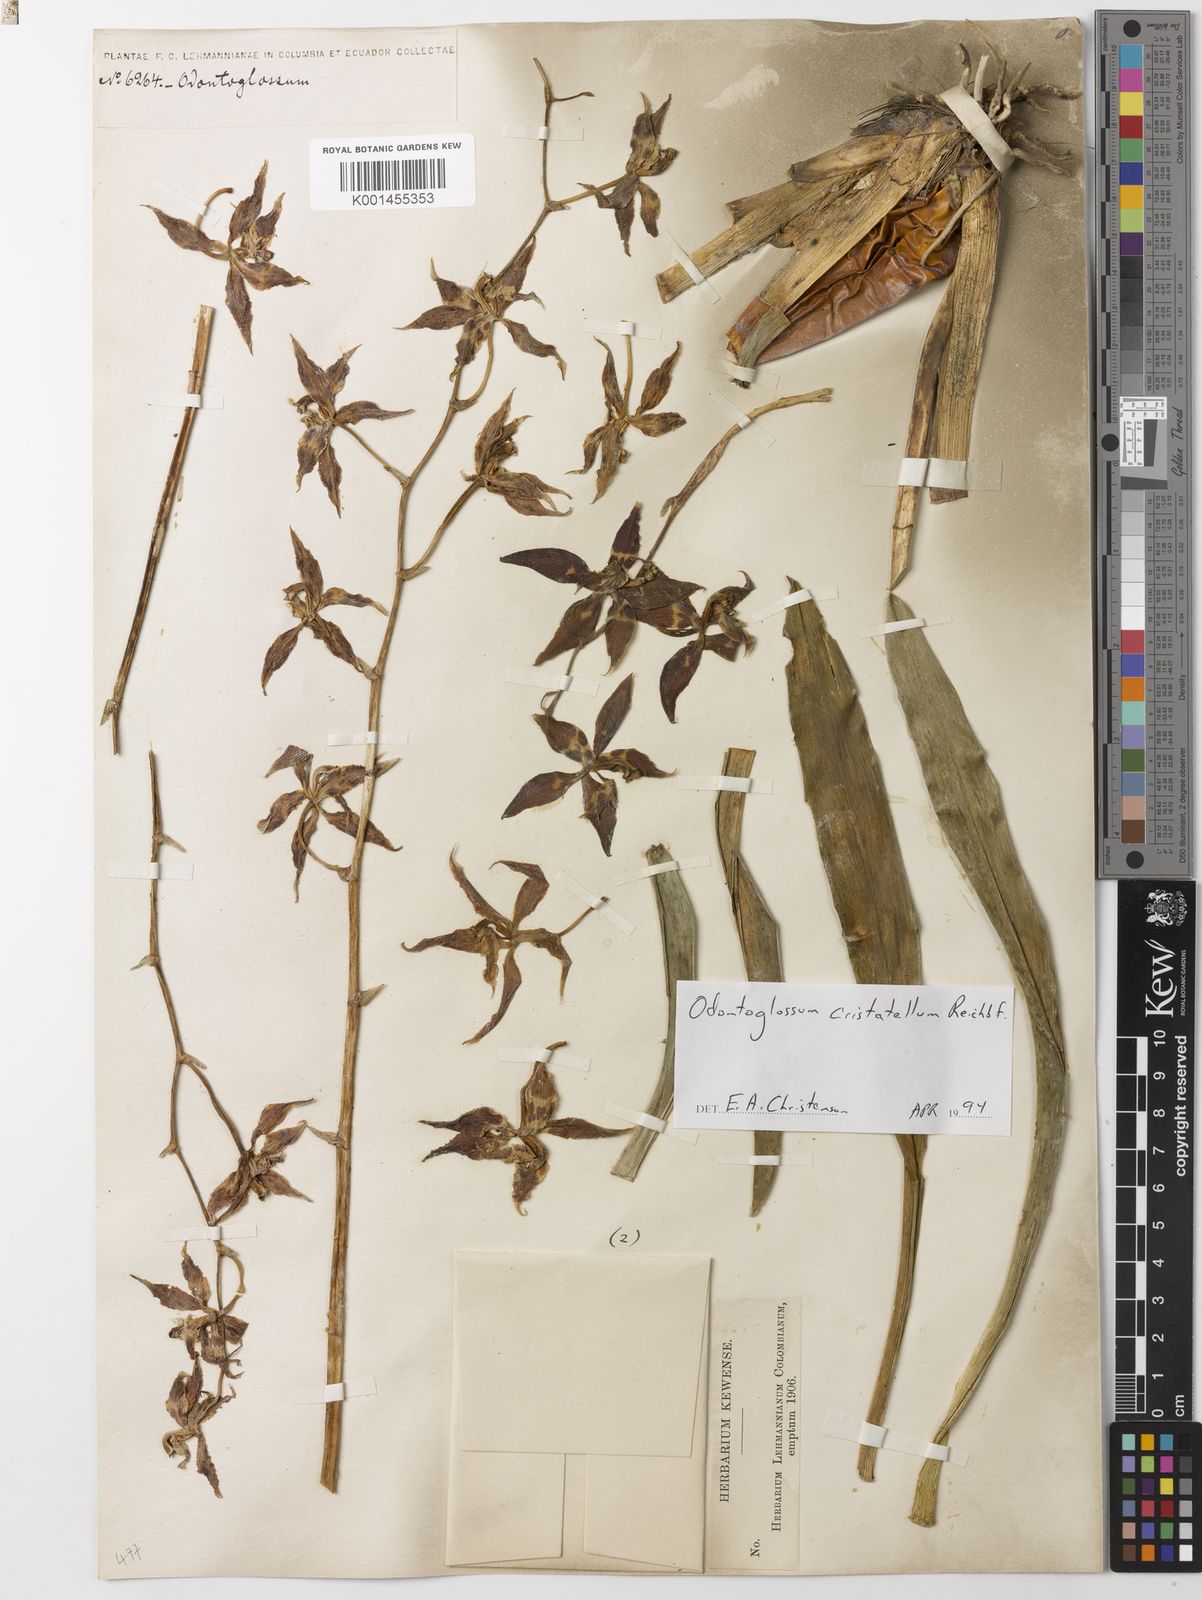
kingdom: Plantae
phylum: Tracheophyta
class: Liliopsida
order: Asparagales
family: Orchidaceae
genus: Oncidium
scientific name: Oncidium lehmannii
